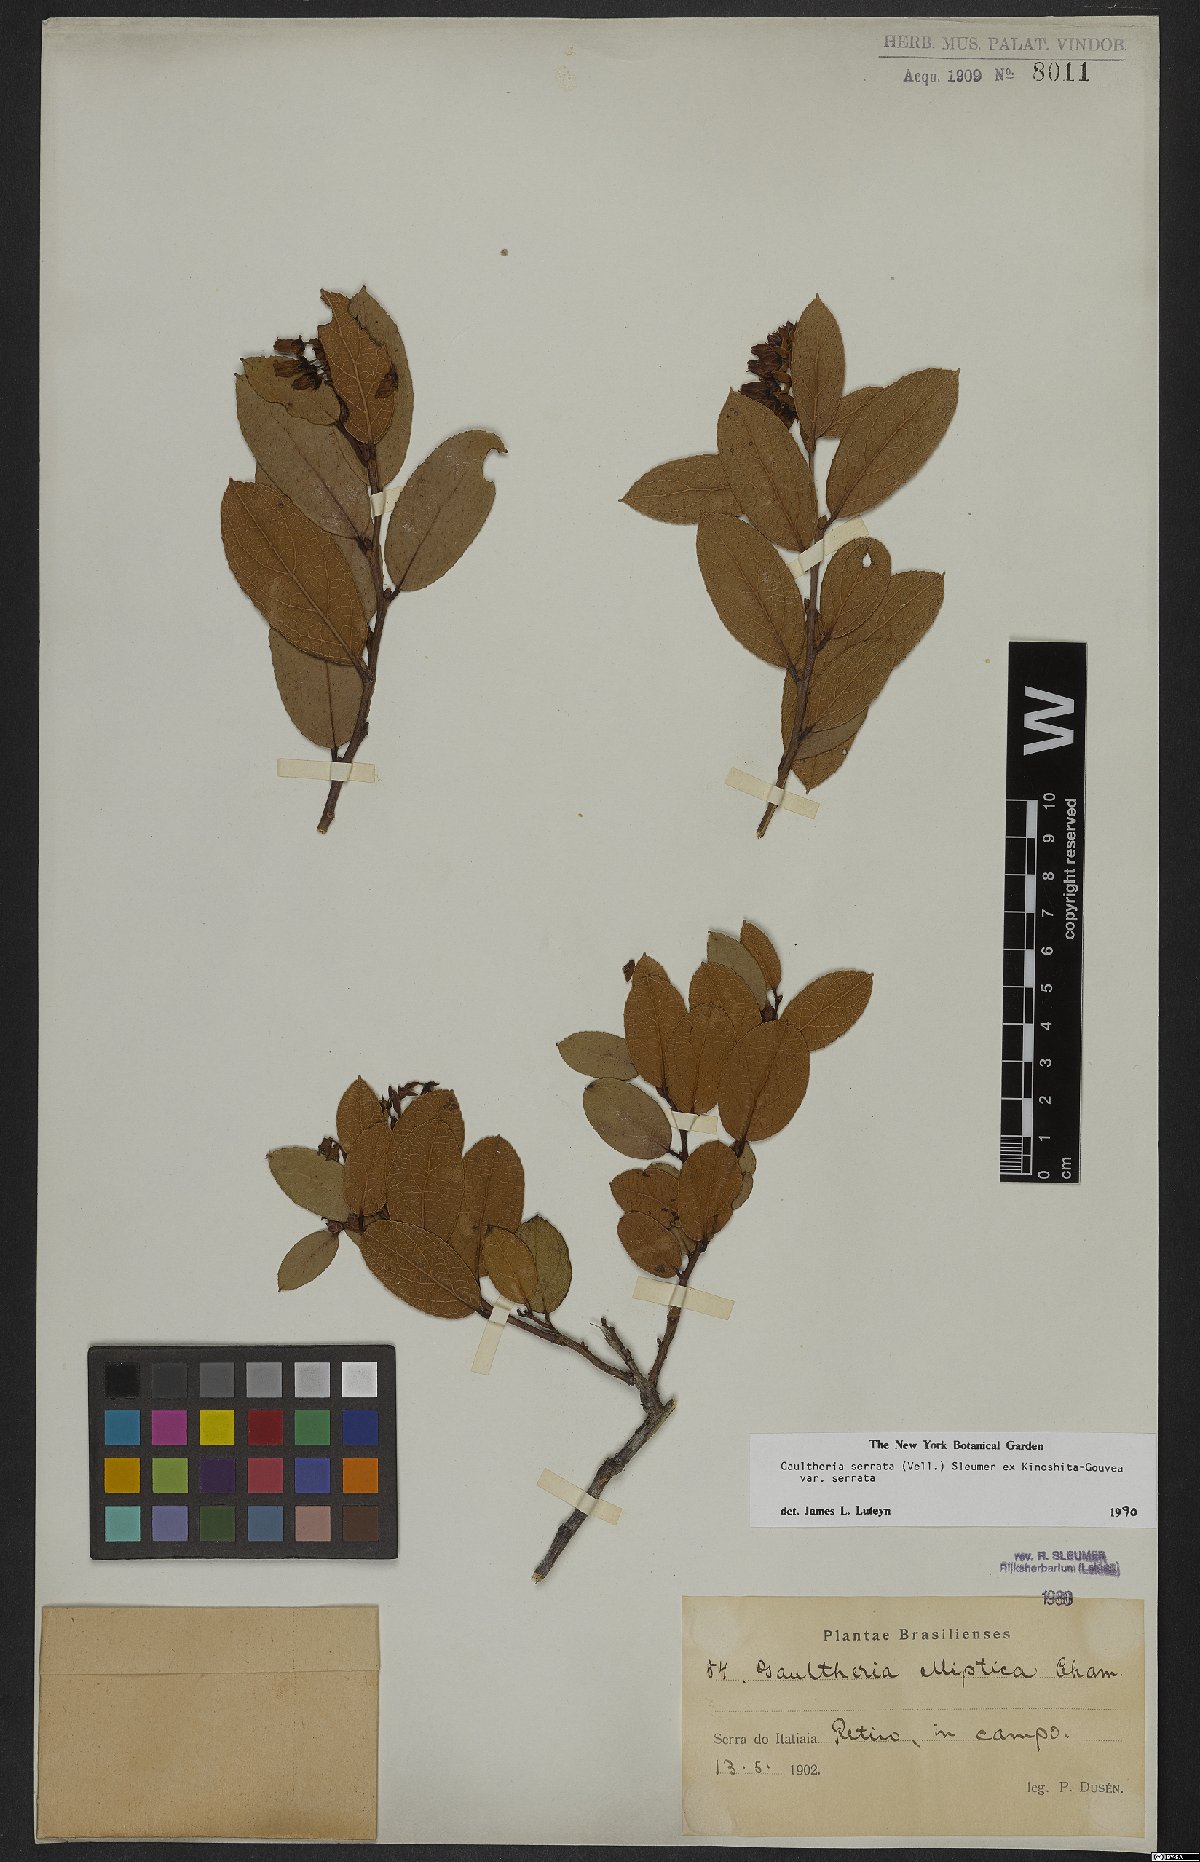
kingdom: Plantae
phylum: Tracheophyta
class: Magnoliopsida
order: Ericales
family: Ericaceae
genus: Gaultheria
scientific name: Gaultheria serrata
